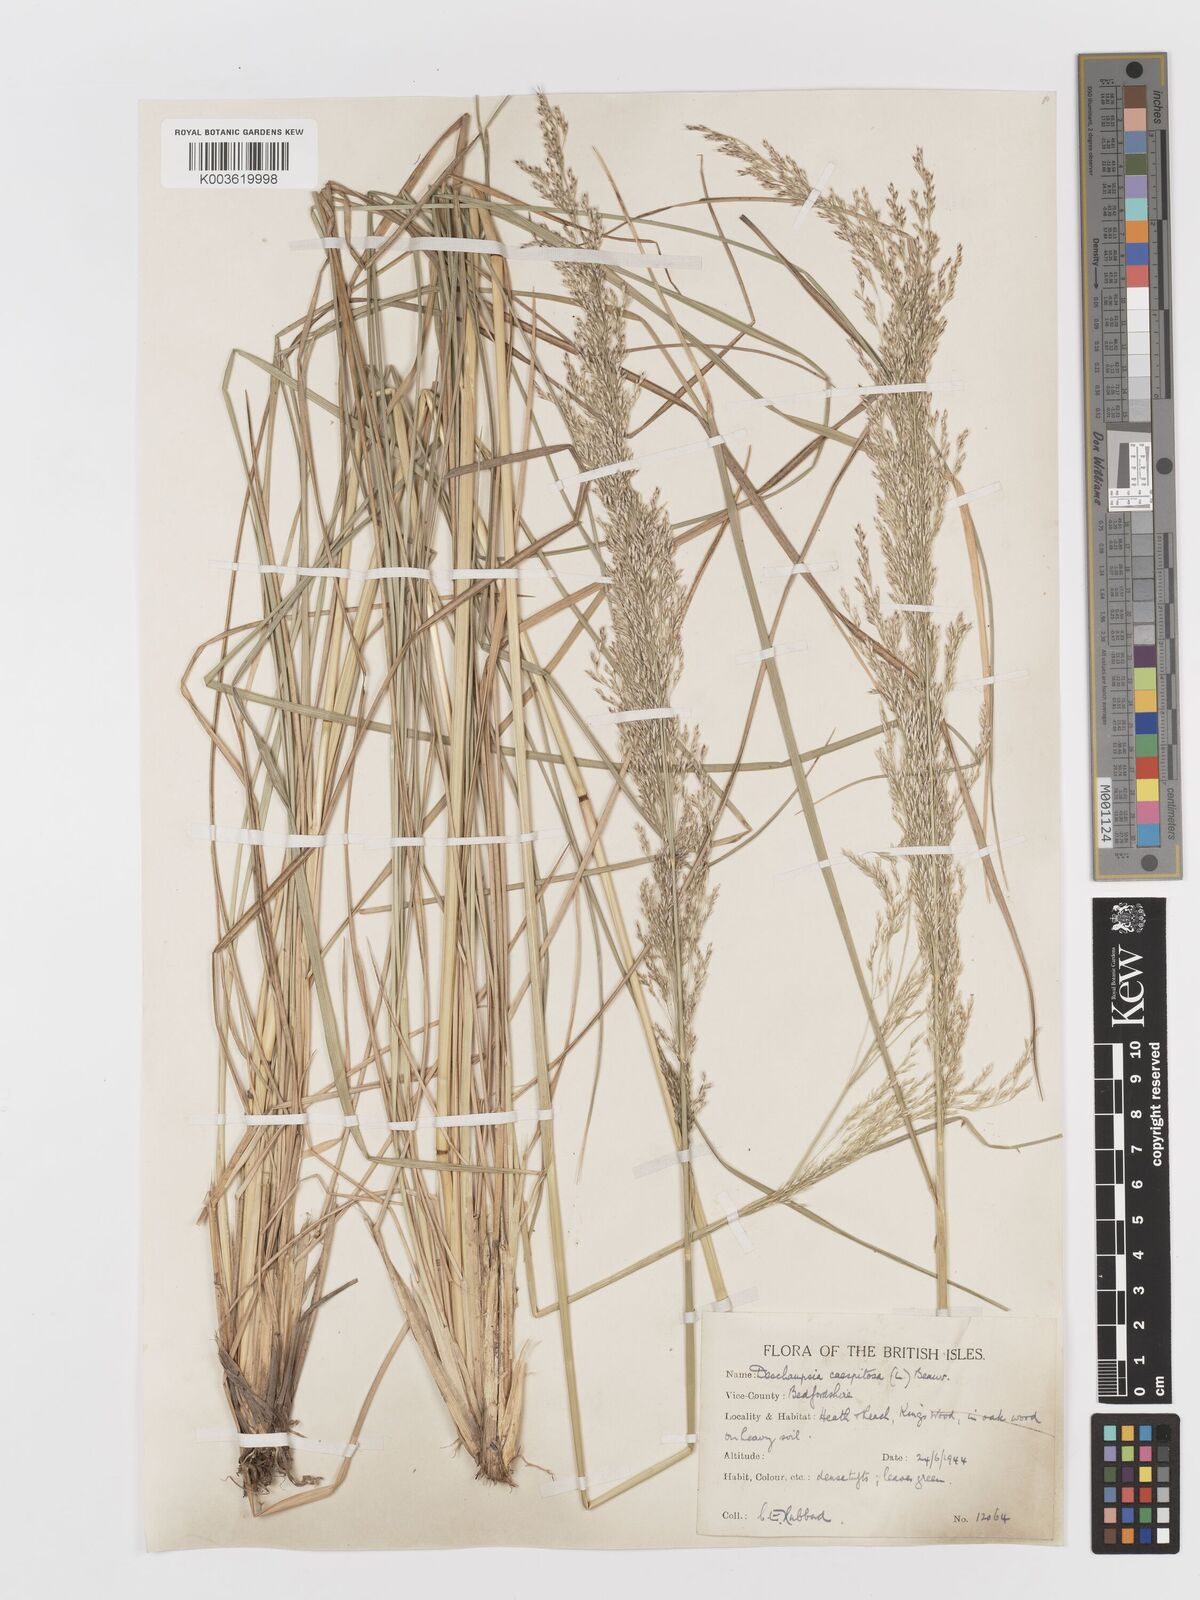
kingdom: Plantae
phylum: Tracheophyta
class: Liliopsida
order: Poales
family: Poaceae
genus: Deschampsia
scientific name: Deschampsia cespitosa
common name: Tufted hair-grass
